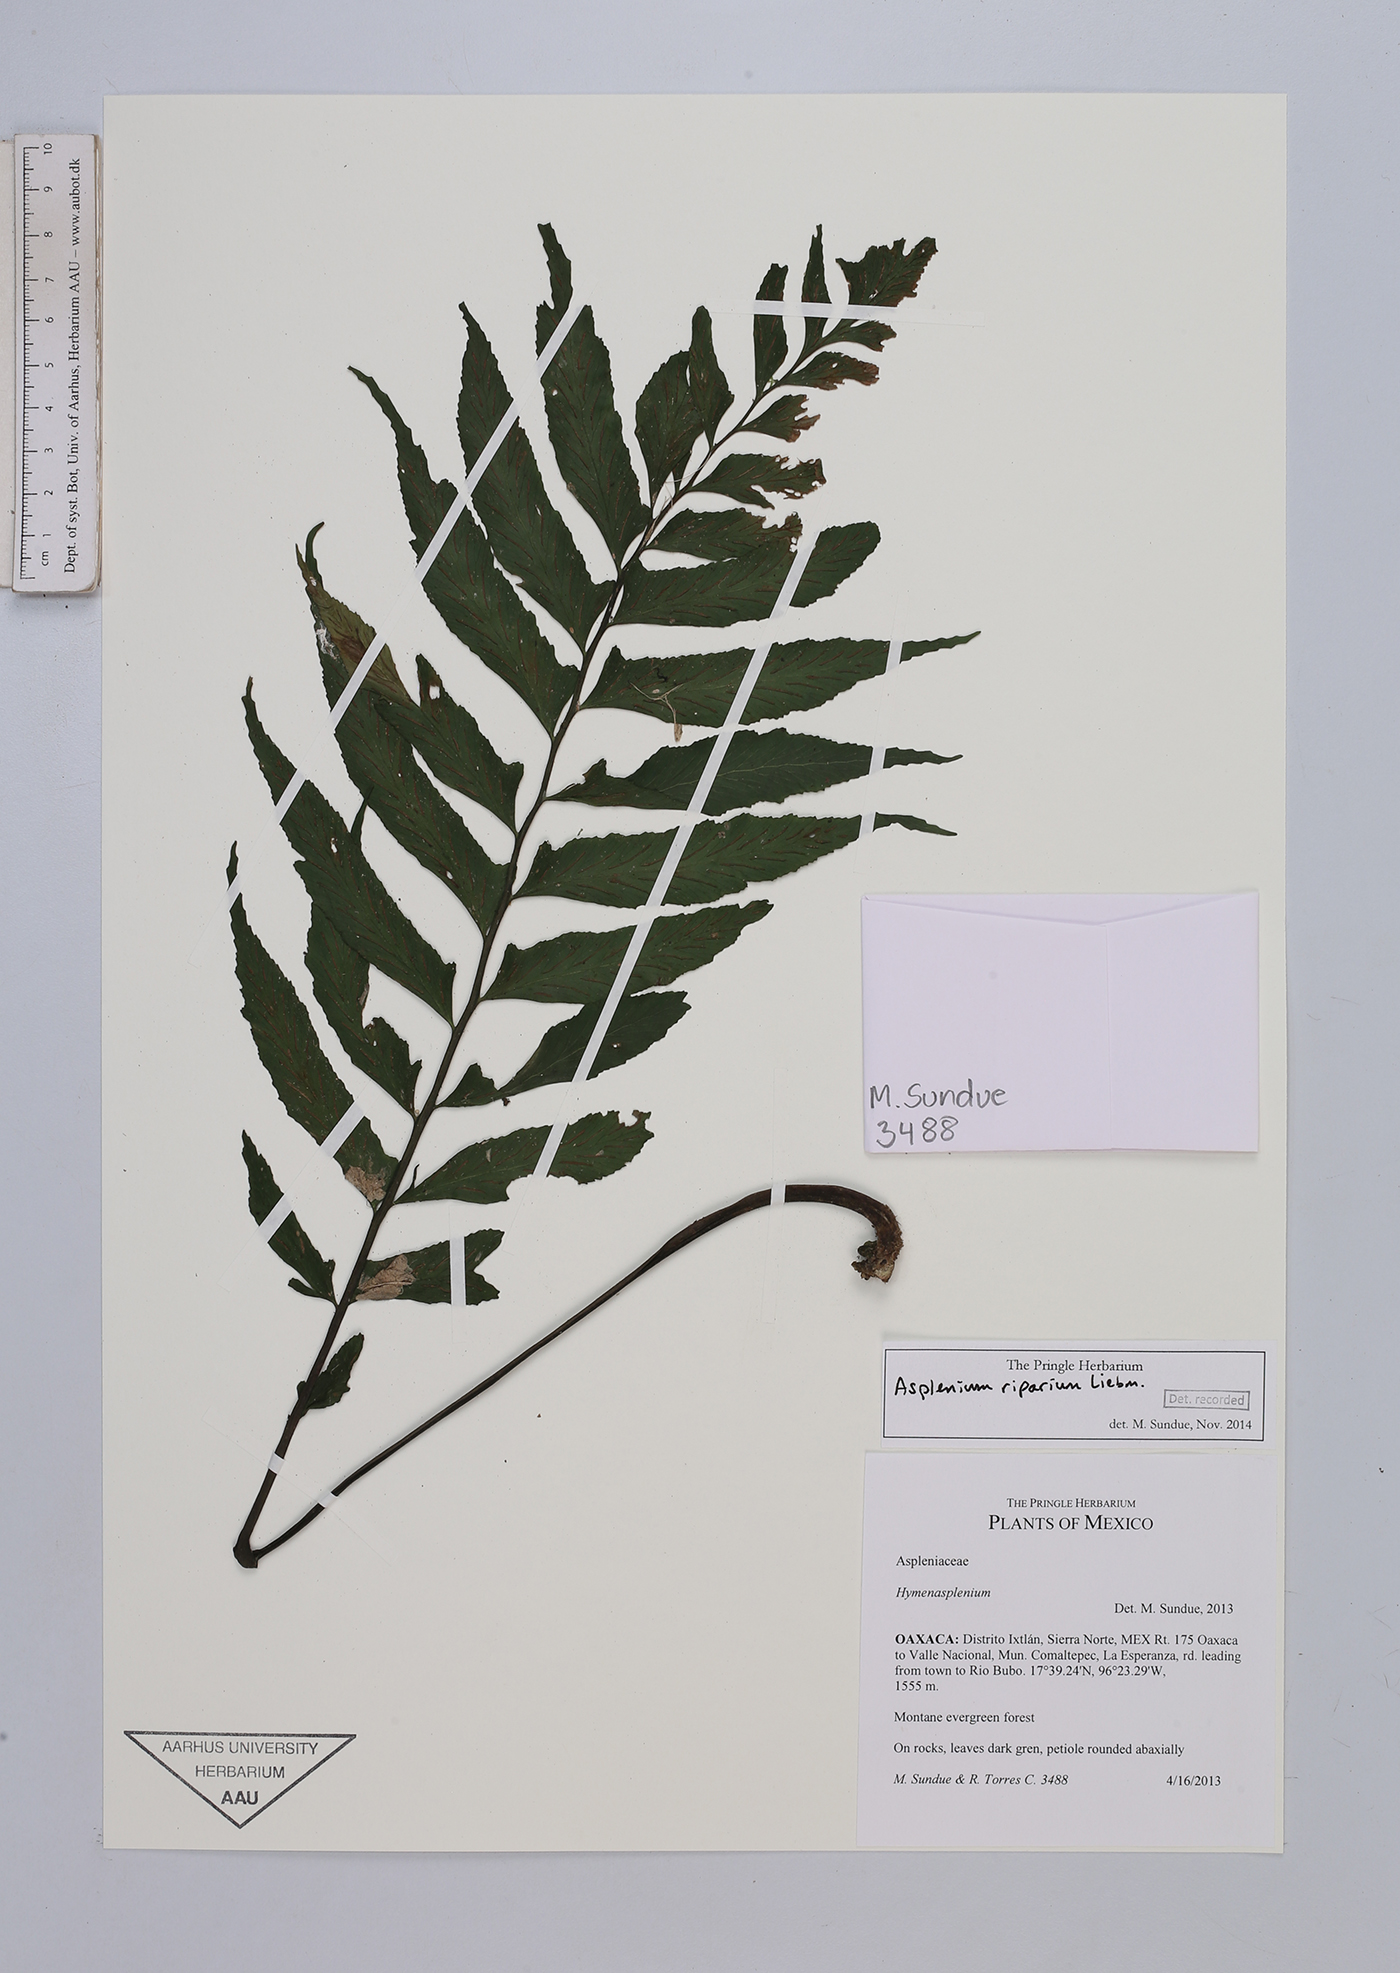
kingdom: Plantae
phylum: Tracheophyta
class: Polypodiopsida
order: Polypodiales
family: Aspleniaceae
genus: Hymenasplenium
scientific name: Hymenasplenium riparium
